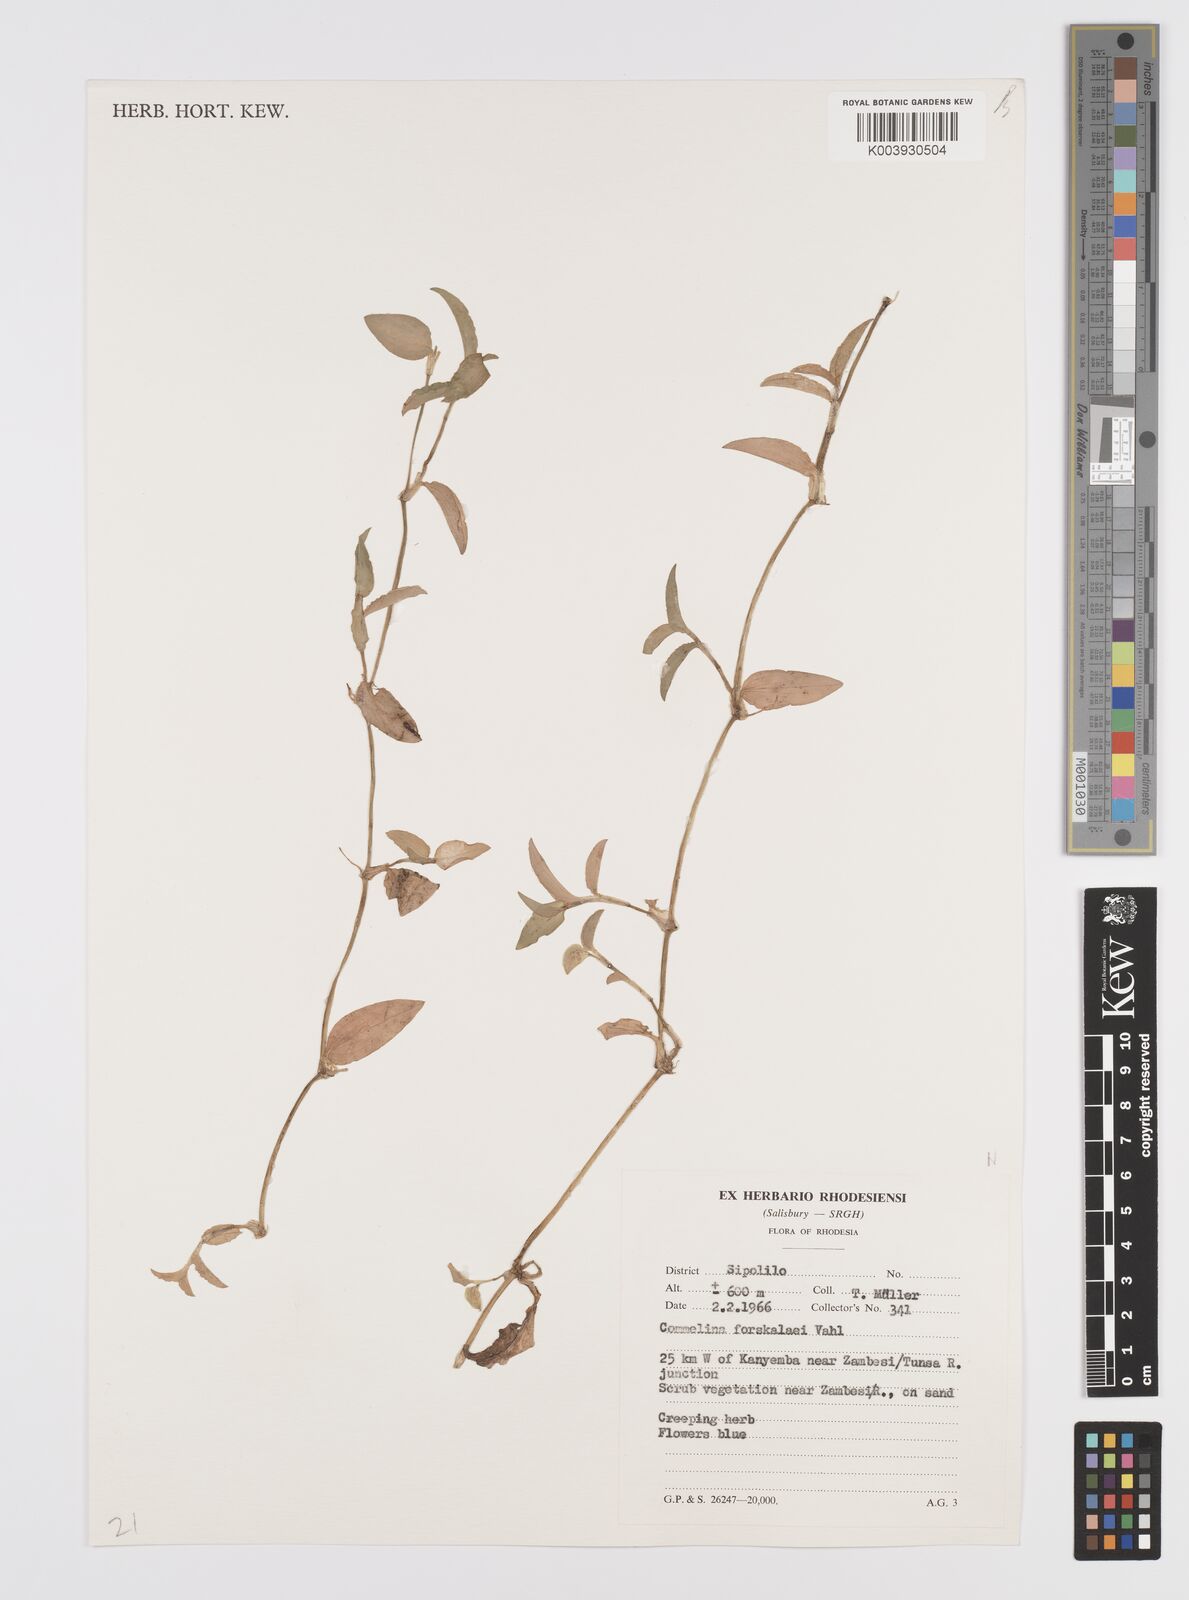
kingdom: Plantae
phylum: Tracheophyta
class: Liliopsida
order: Commelinales
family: Commelinaceae
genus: Commelina
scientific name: Commelina forskaolii
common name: Rat's ear
